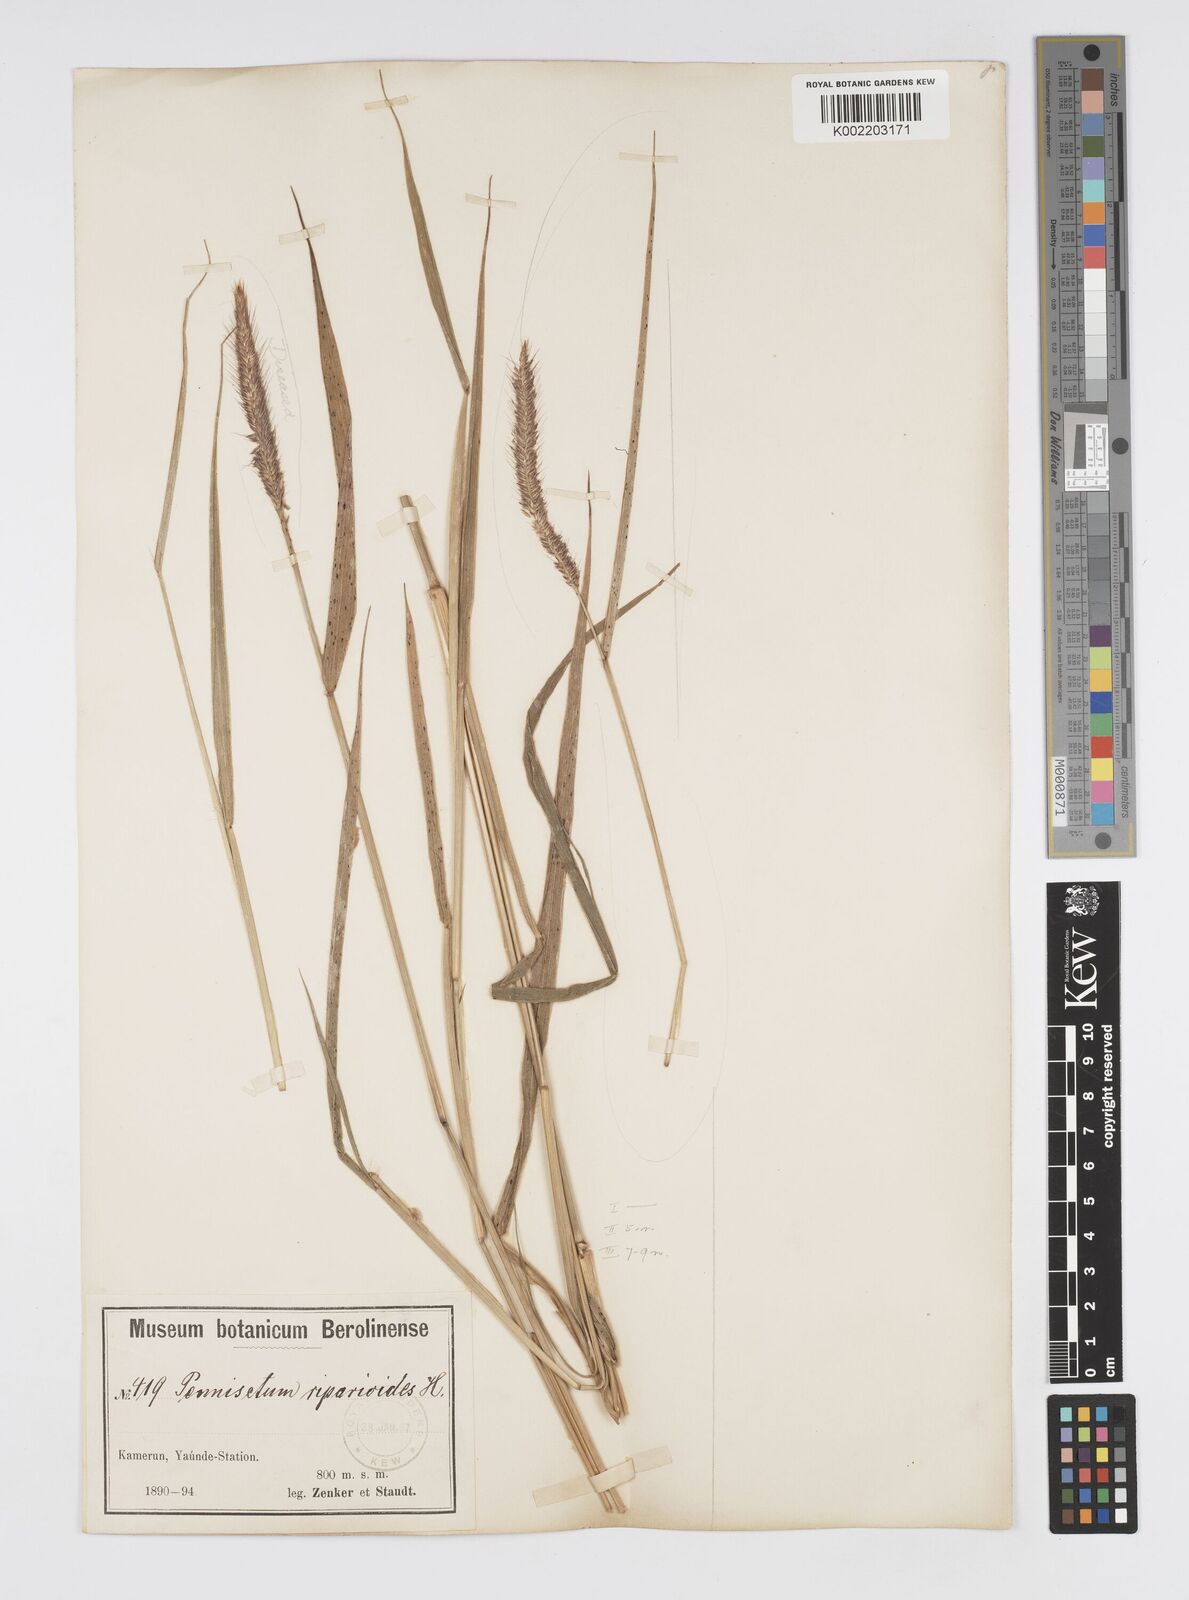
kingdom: Plantae
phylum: Tracheophyta
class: Liliopsida
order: Poales
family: Poaceae
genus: Cenchrus
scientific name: Cenchrus hordeoides
